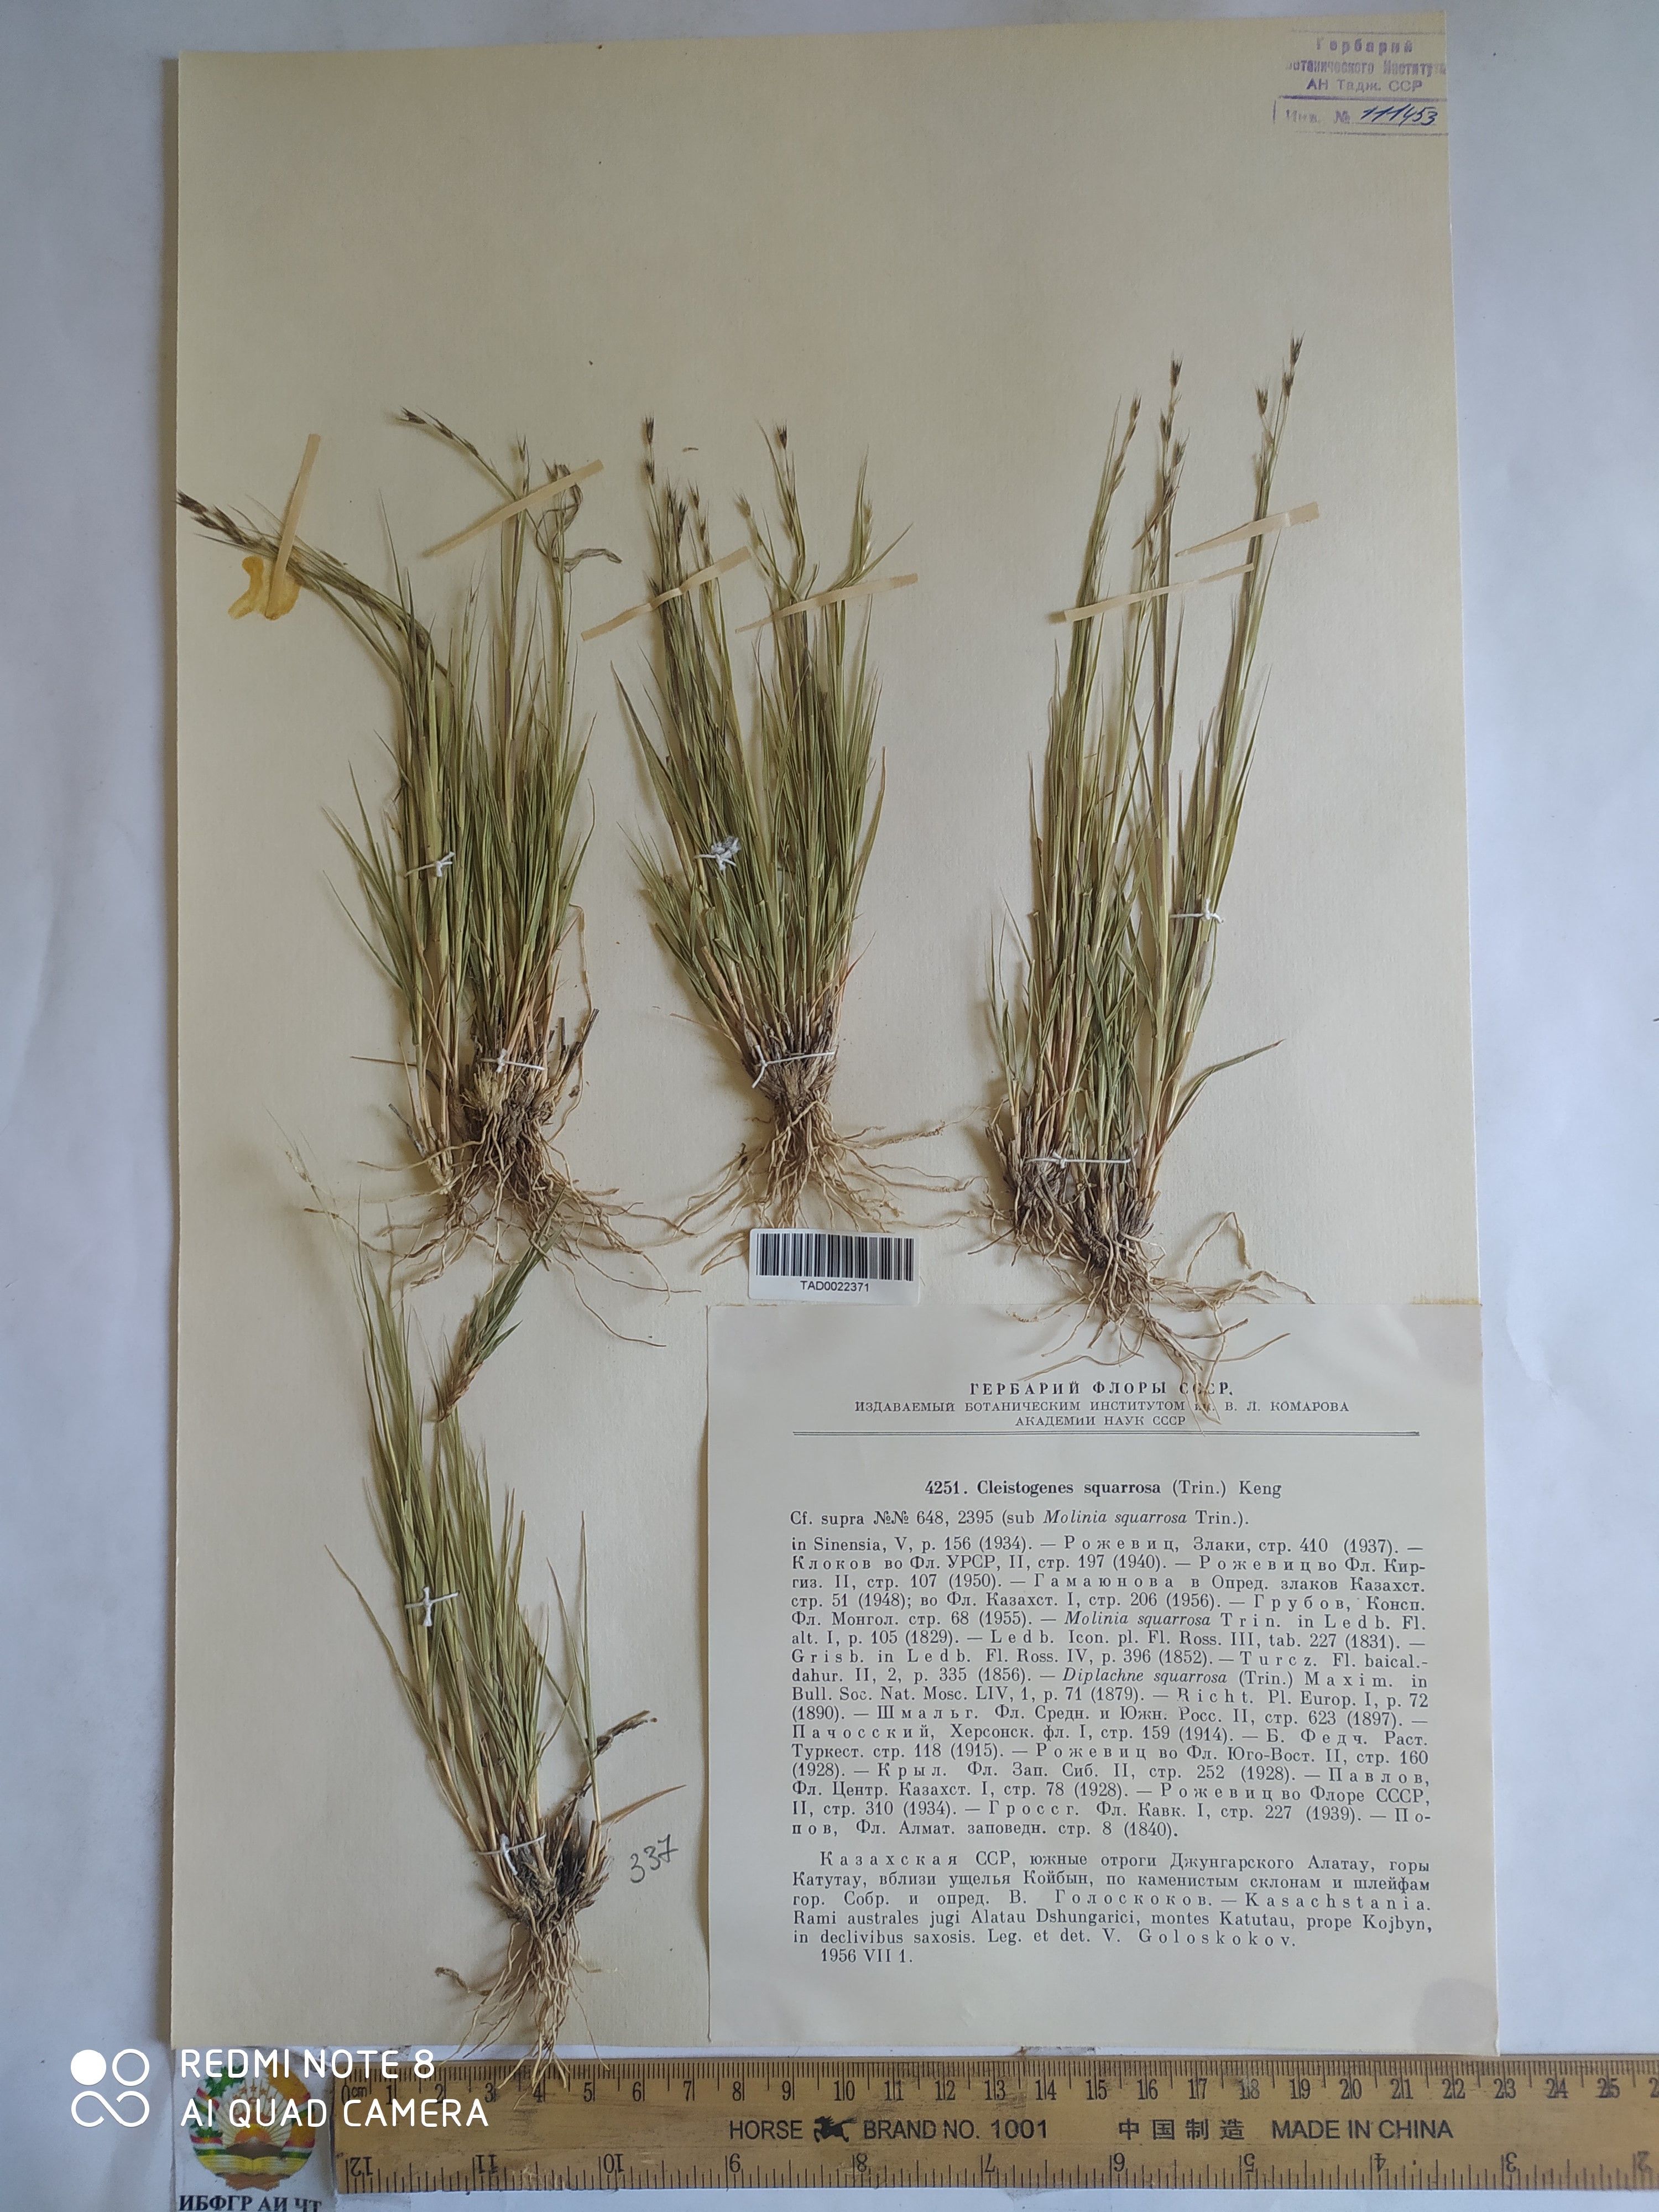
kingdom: Plantae
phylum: Tracheophyta
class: Liliopsida
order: Poales
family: Poaceae
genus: Cleistogenes
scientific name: Cleistogenes squarrosa
